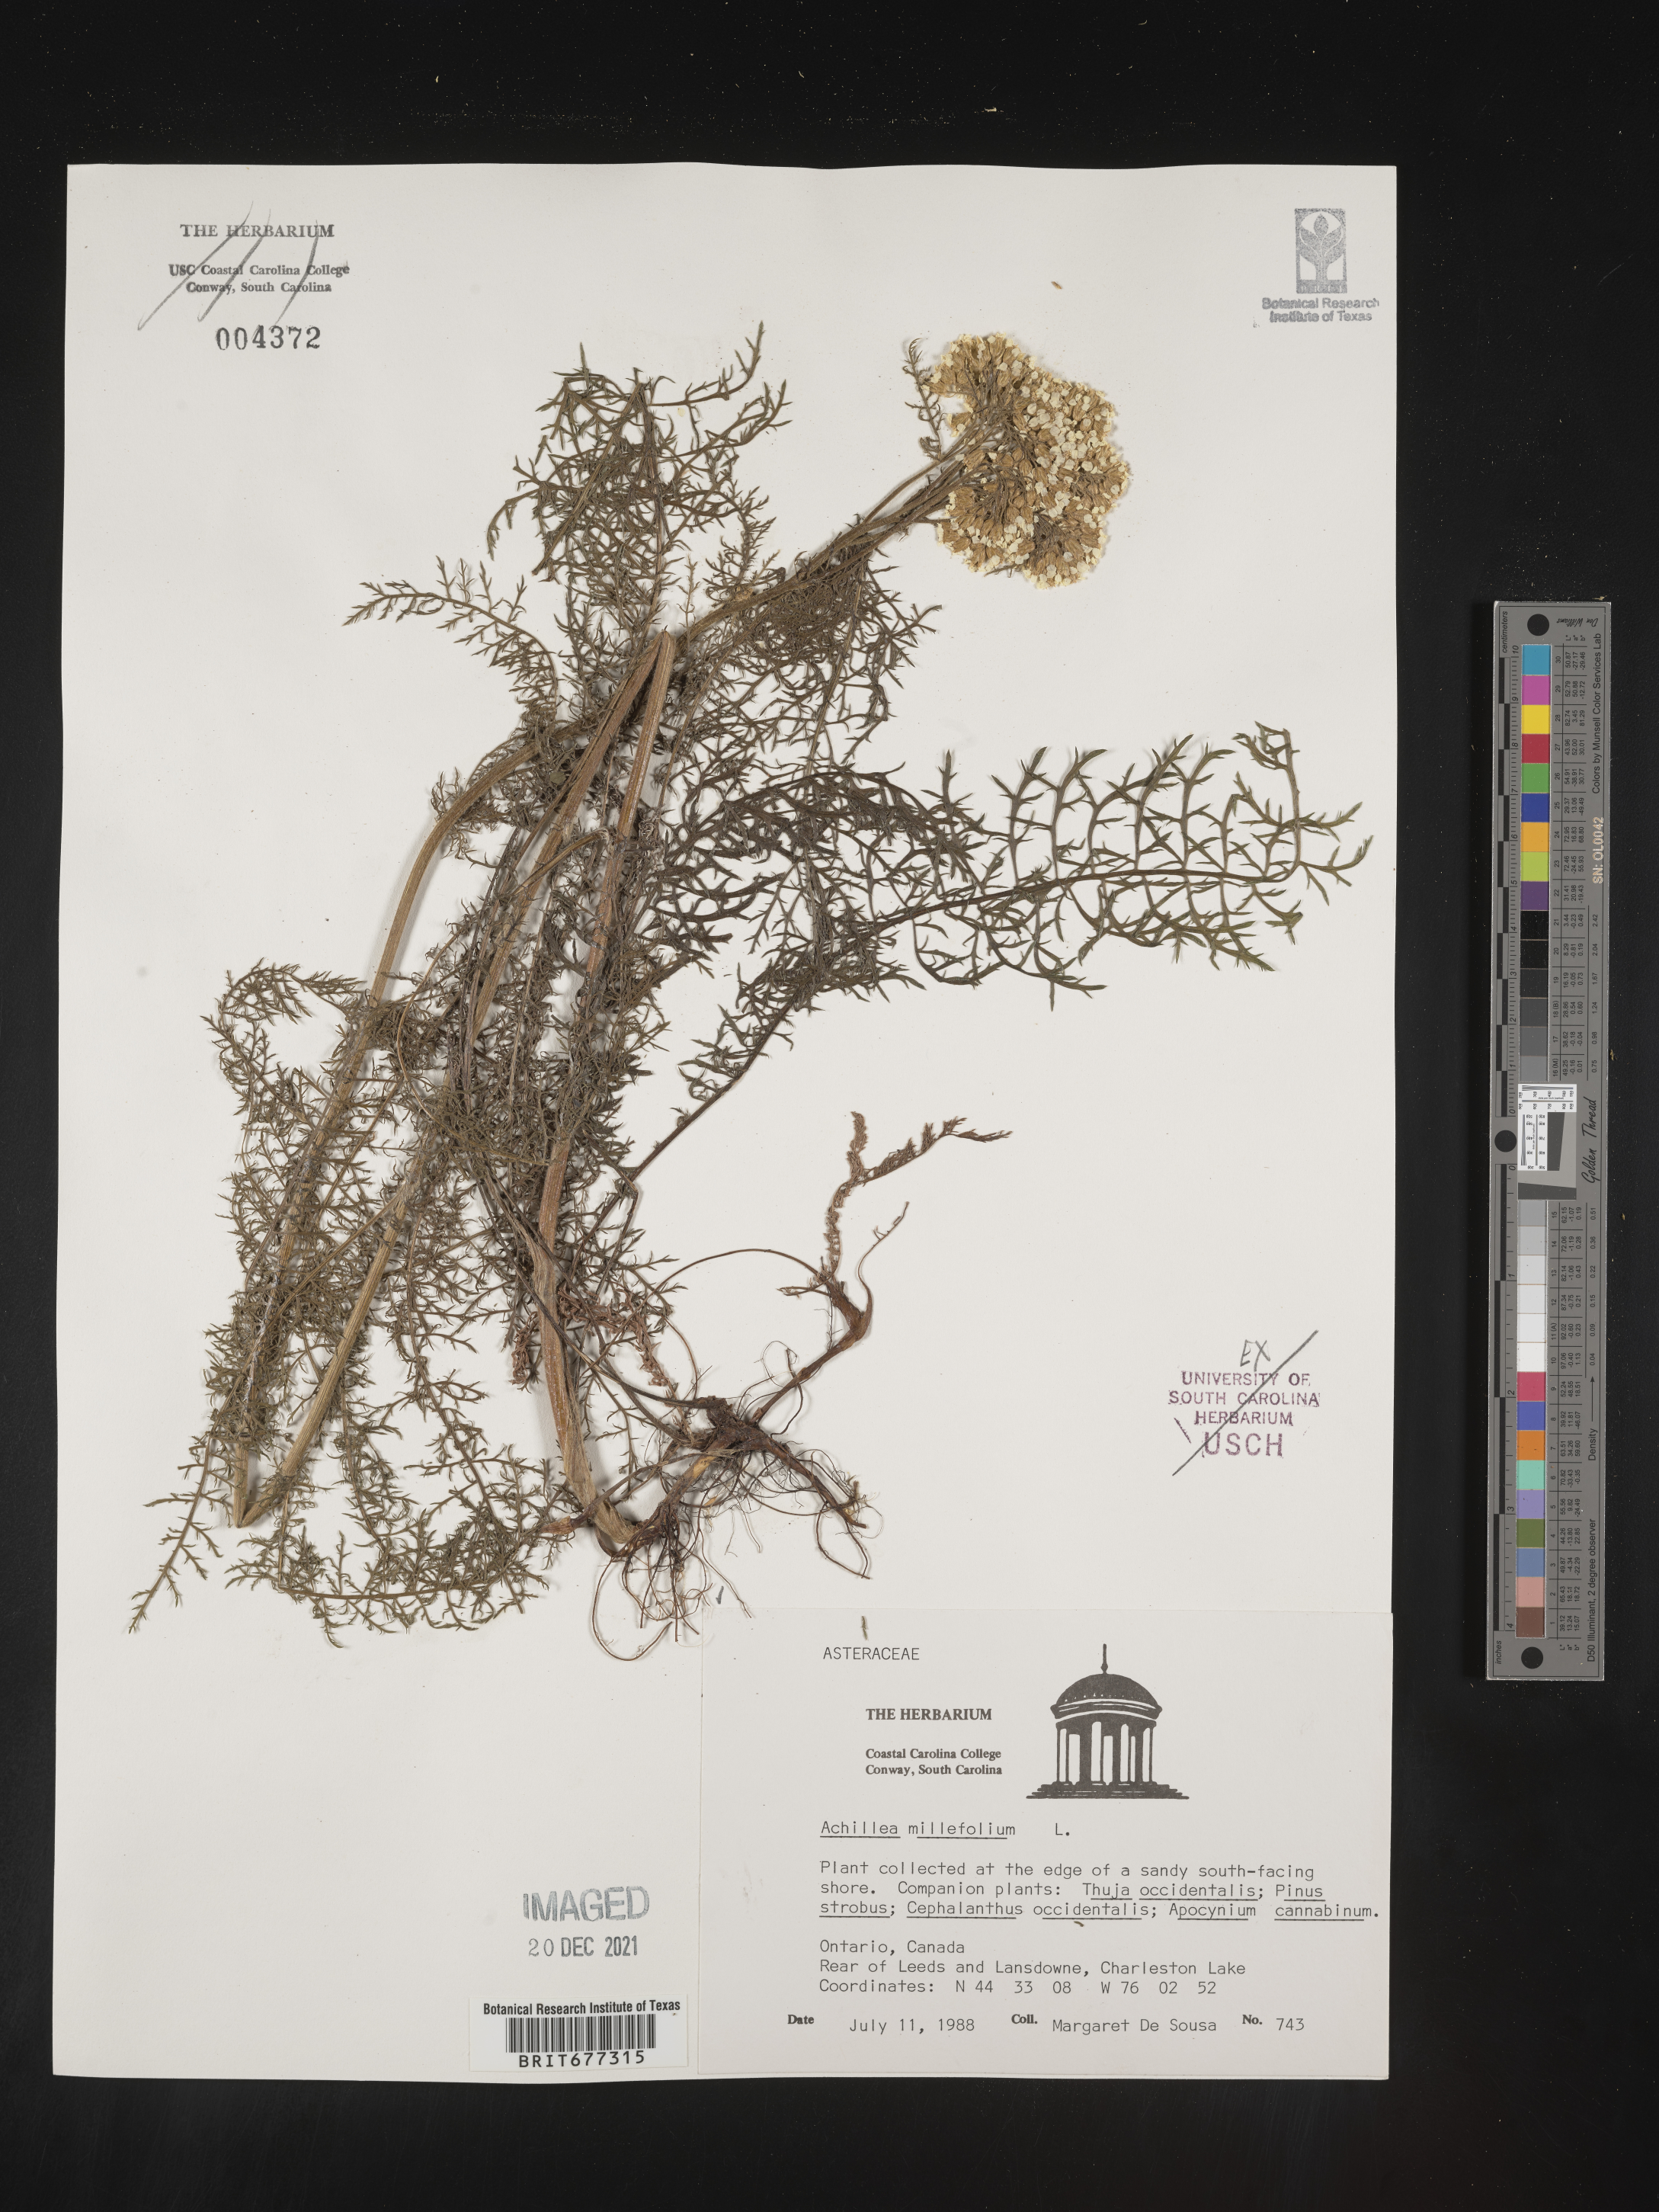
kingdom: Plantae
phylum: Tracheophyta
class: Magnoliopsida
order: Asterales
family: Asteraceae
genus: Achillea
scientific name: Achillea millefolium
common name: Yarrow
